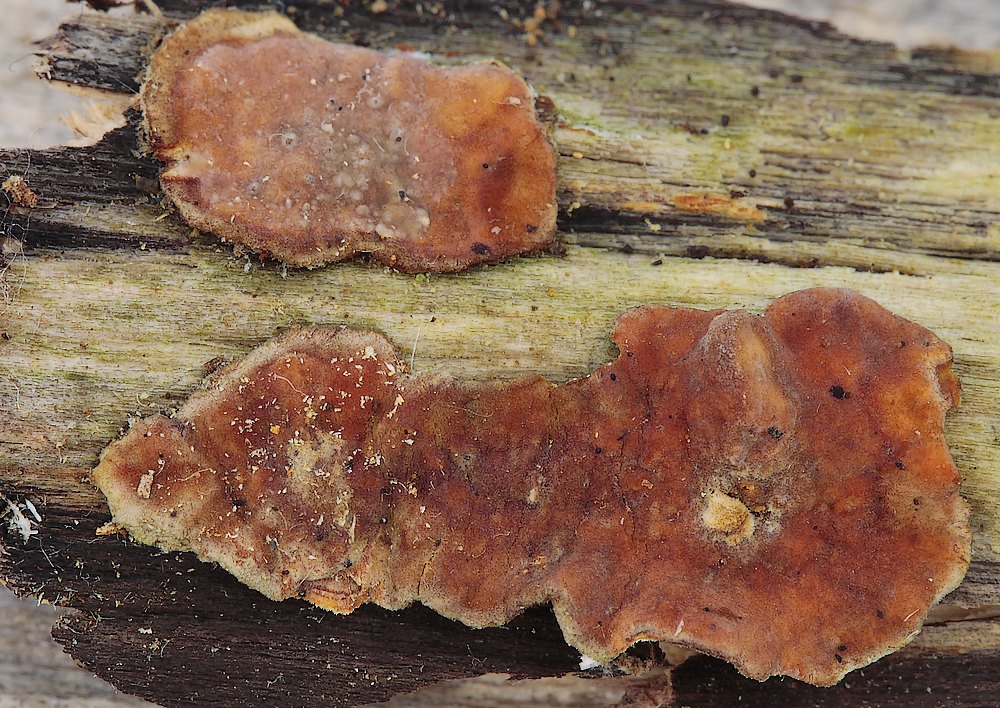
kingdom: Fungi
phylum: Basidiomycota
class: Agaricomycetes
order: Russulales
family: Stereaceae
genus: Stereum
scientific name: Stereum hirsutum
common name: håret lædersvamp
